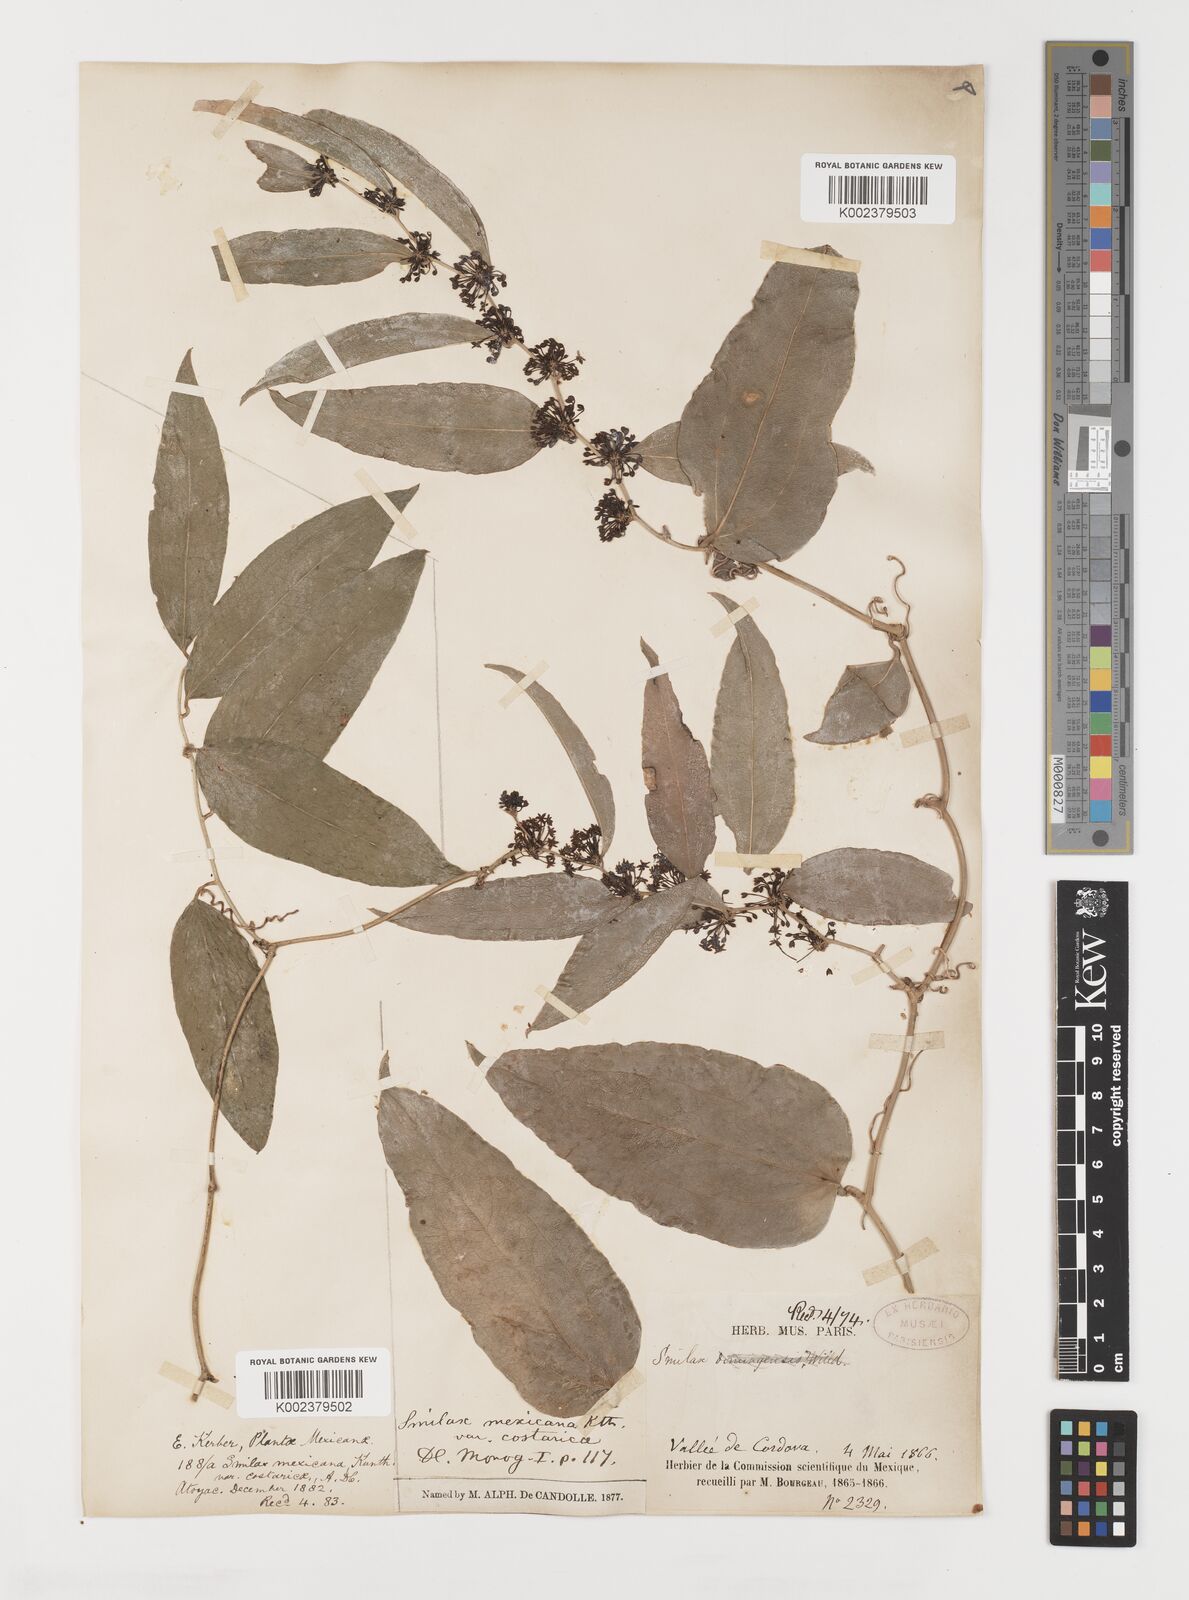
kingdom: Plantae
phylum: Tracheophyta
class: Liliopsida
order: Liliales
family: Smilacaceae
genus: Smilax
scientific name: Smilax spinosa
